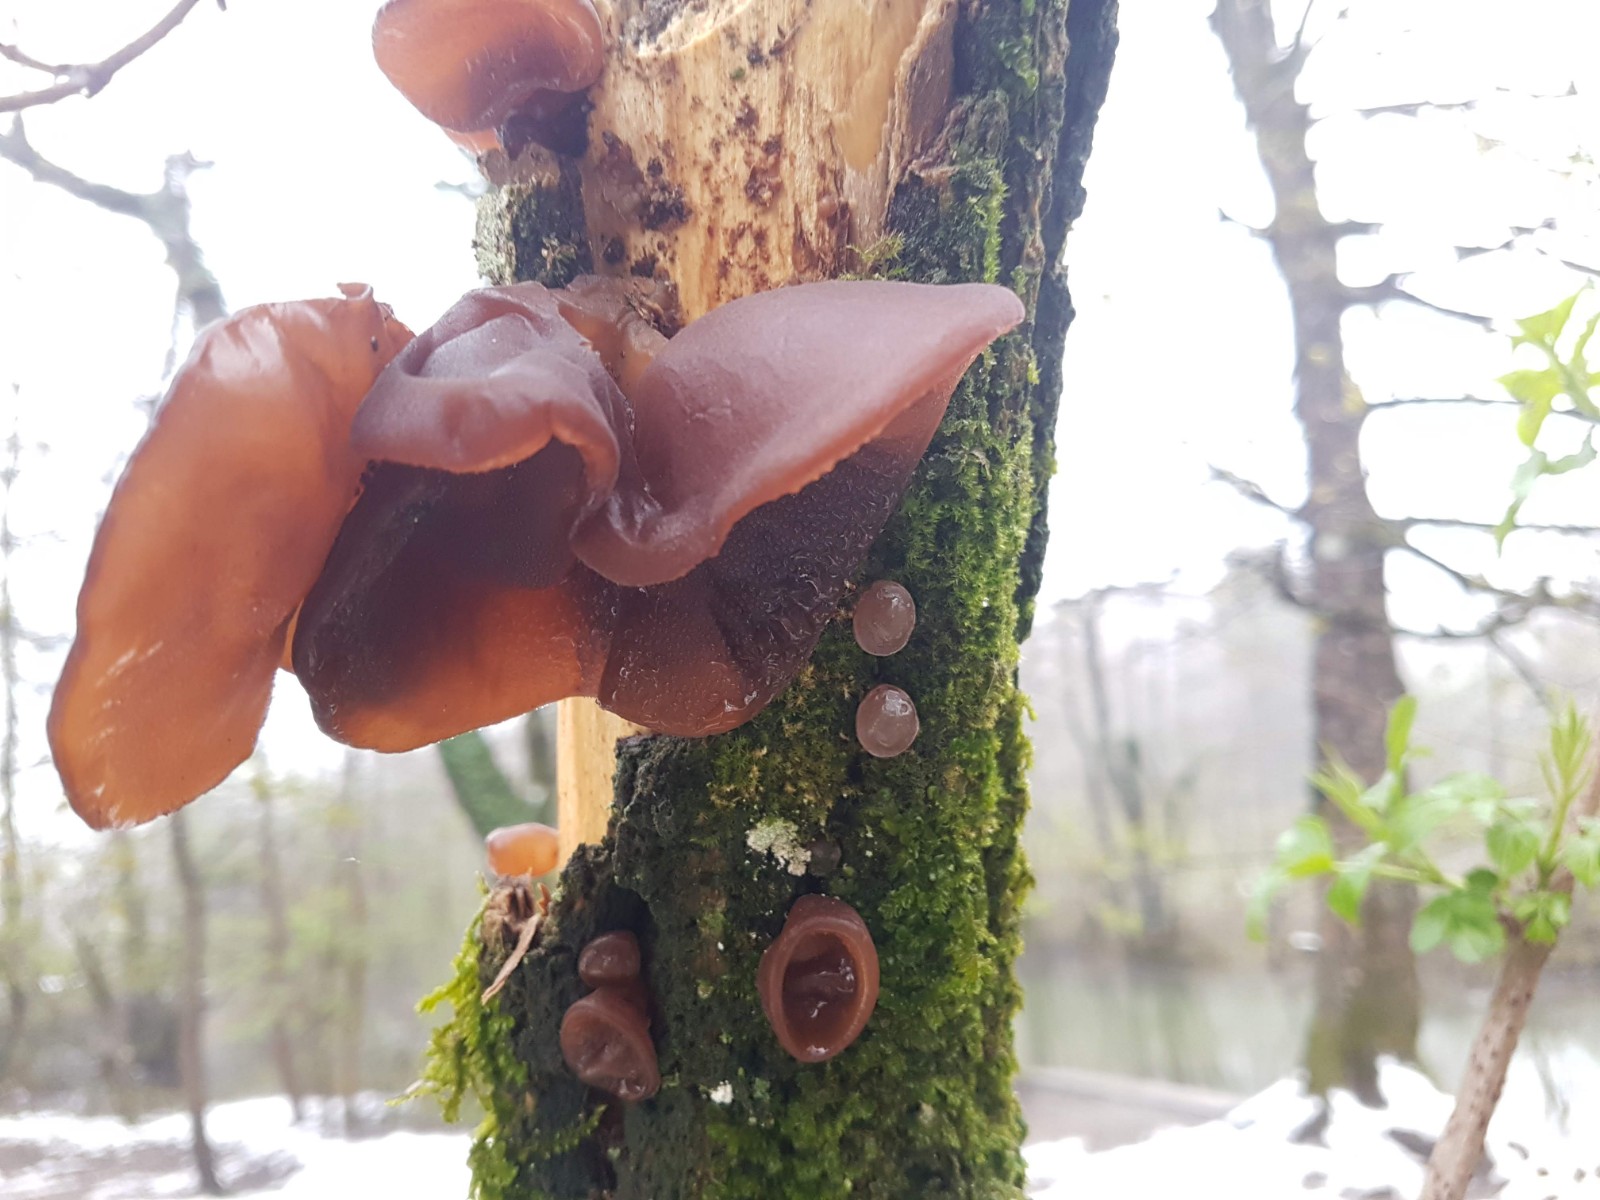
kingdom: Fungi
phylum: Basidiomycota
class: Agaricomycetes
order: Auriculariales
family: Auriculariaceae
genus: Auricularia
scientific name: Auricularia auricula-judae
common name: almindelig judasøre
